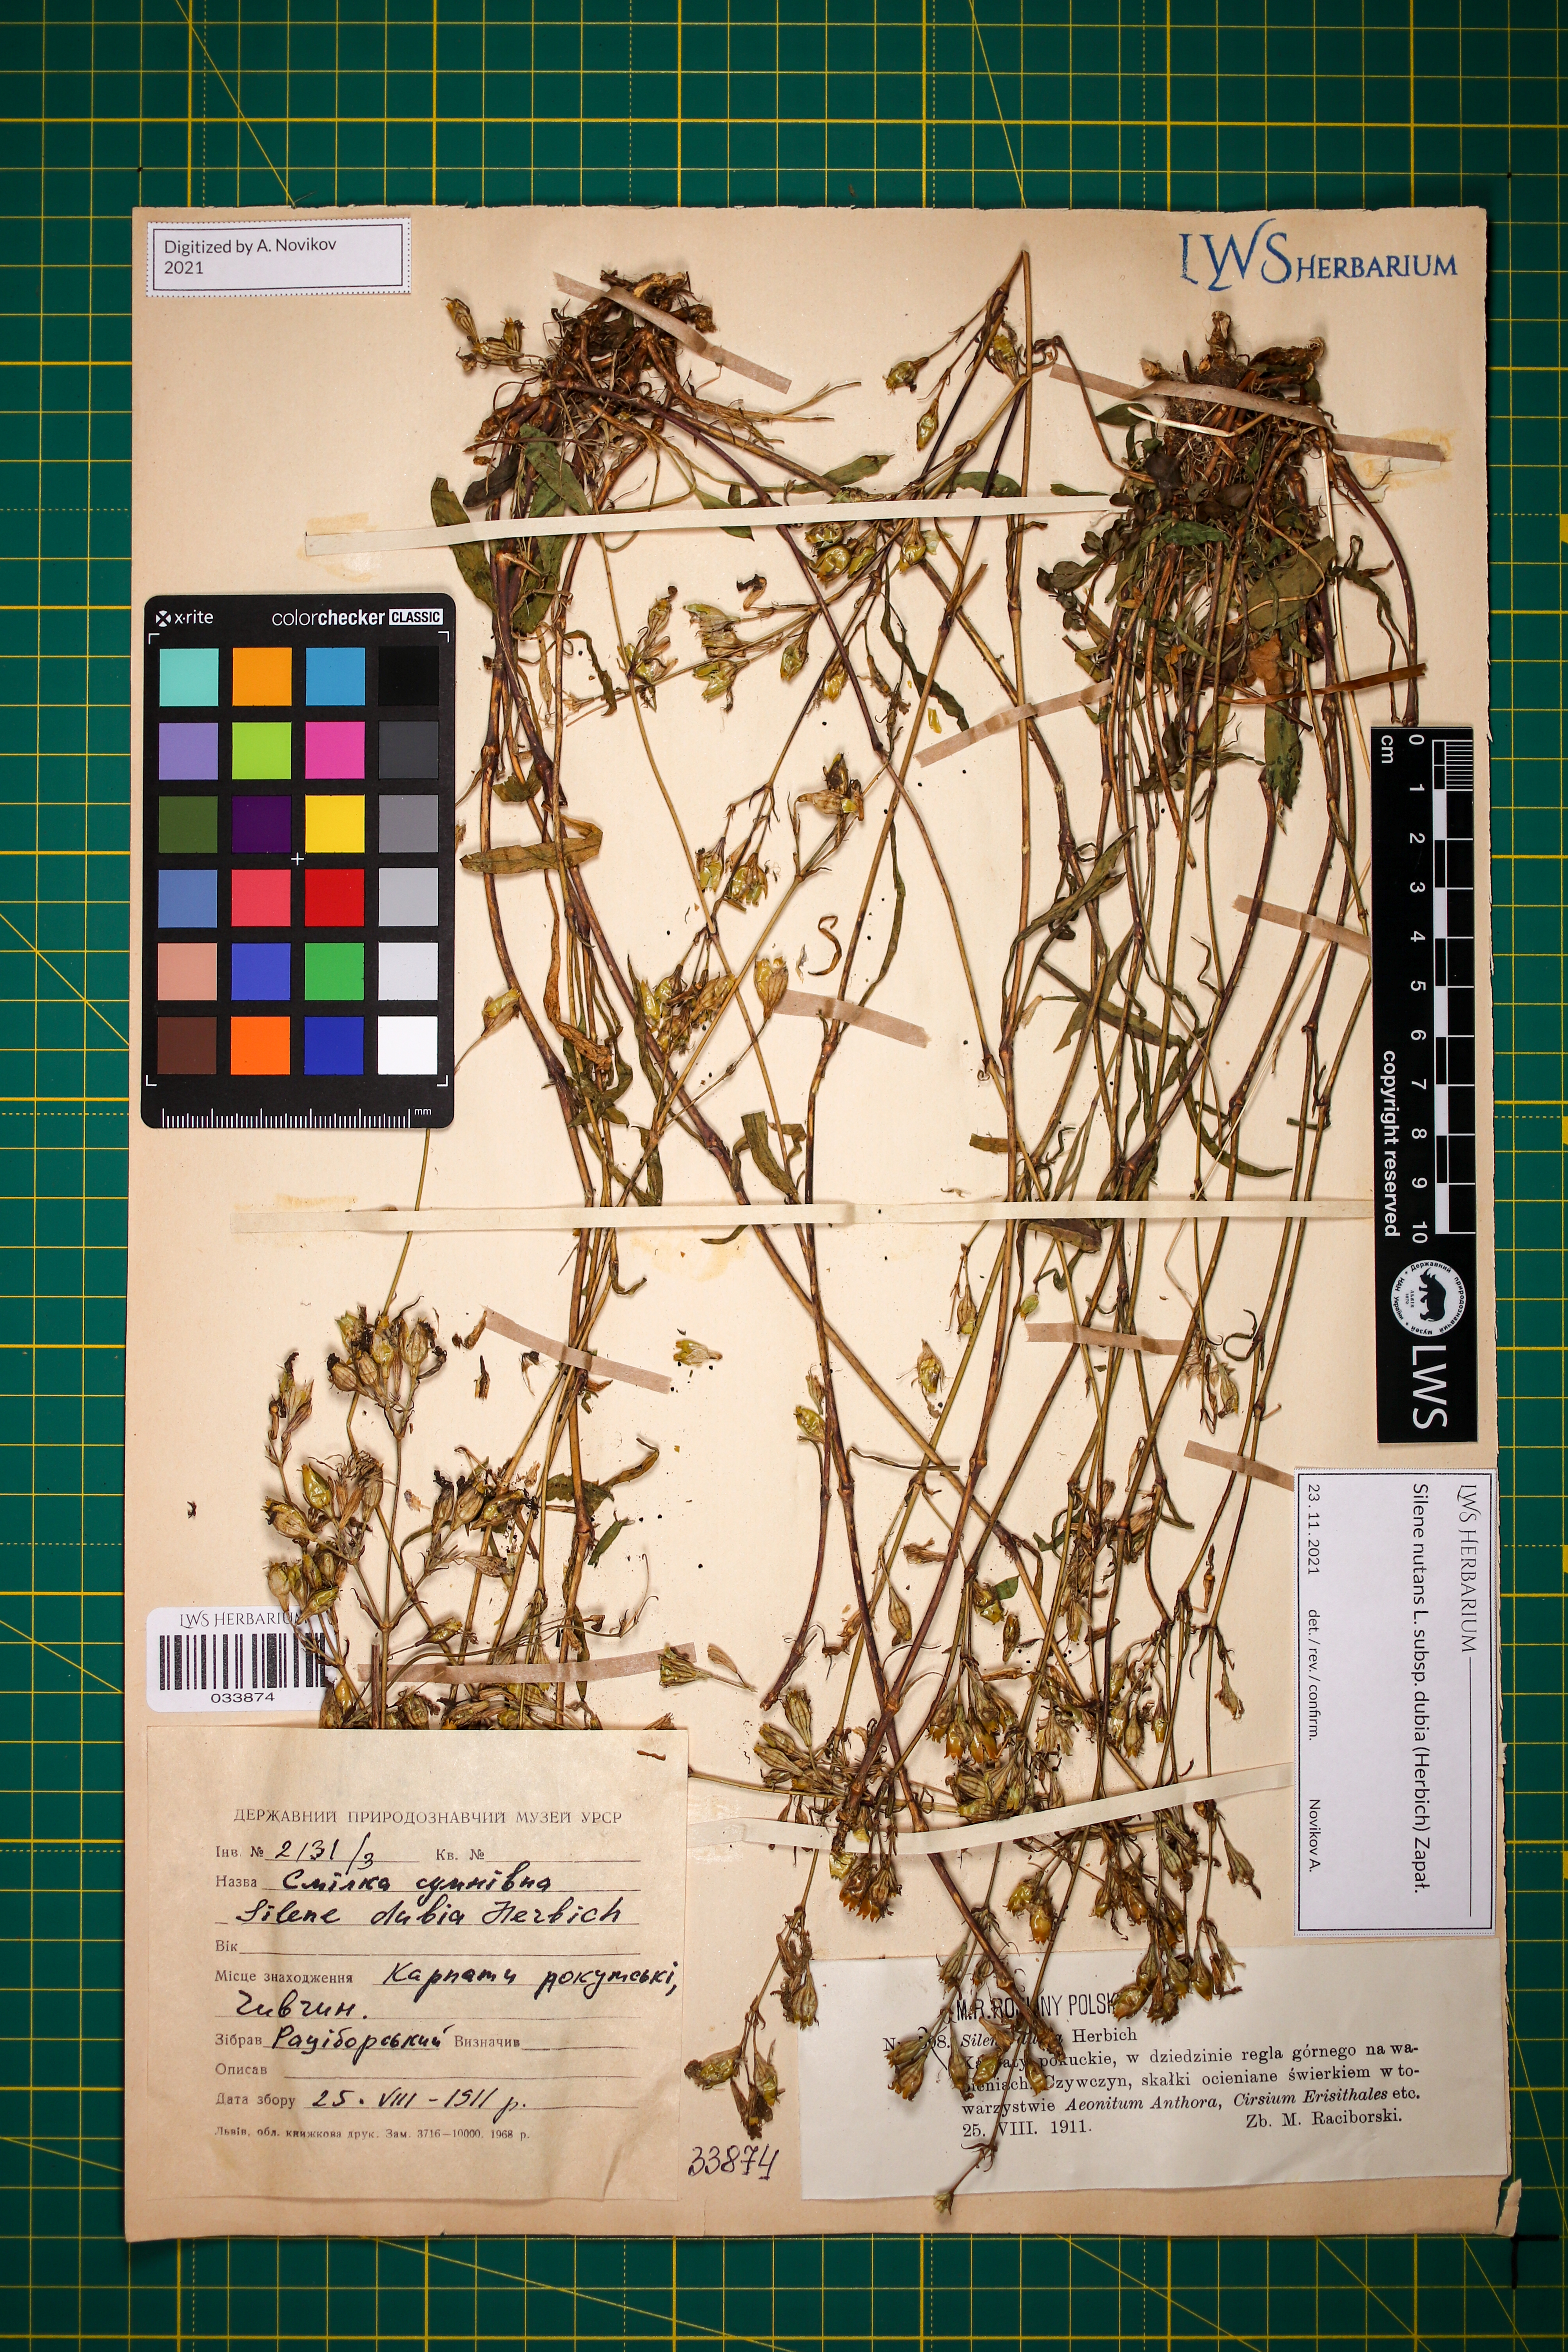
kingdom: Plantae
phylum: Tracheophyta
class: Magnoliopsida
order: Caryophyllales
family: Caryophyllaceae
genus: Silene
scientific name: Silene nutans
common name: Nottingham catchfly
